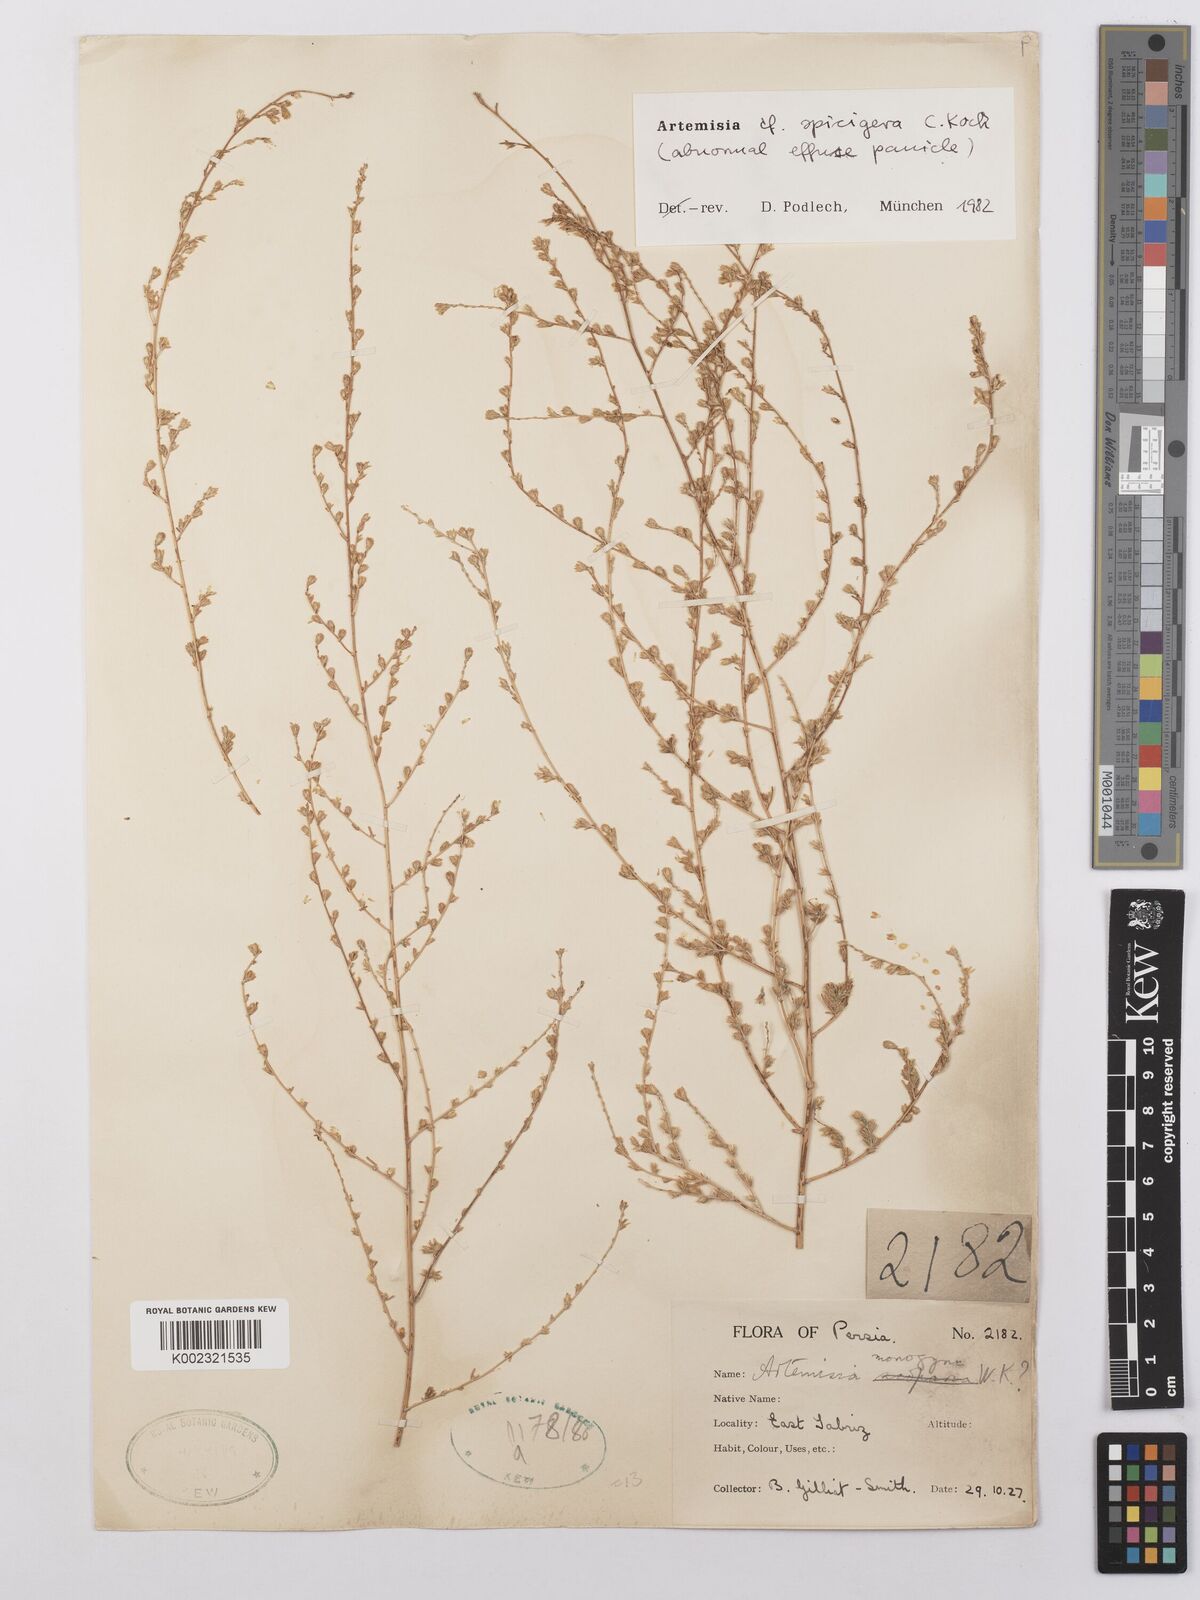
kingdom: Plantae
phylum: Tracheophyta
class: Magnoliopsida
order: Asterales
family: Asteraceae
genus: Artemisia
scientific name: Artemisia spicigera
